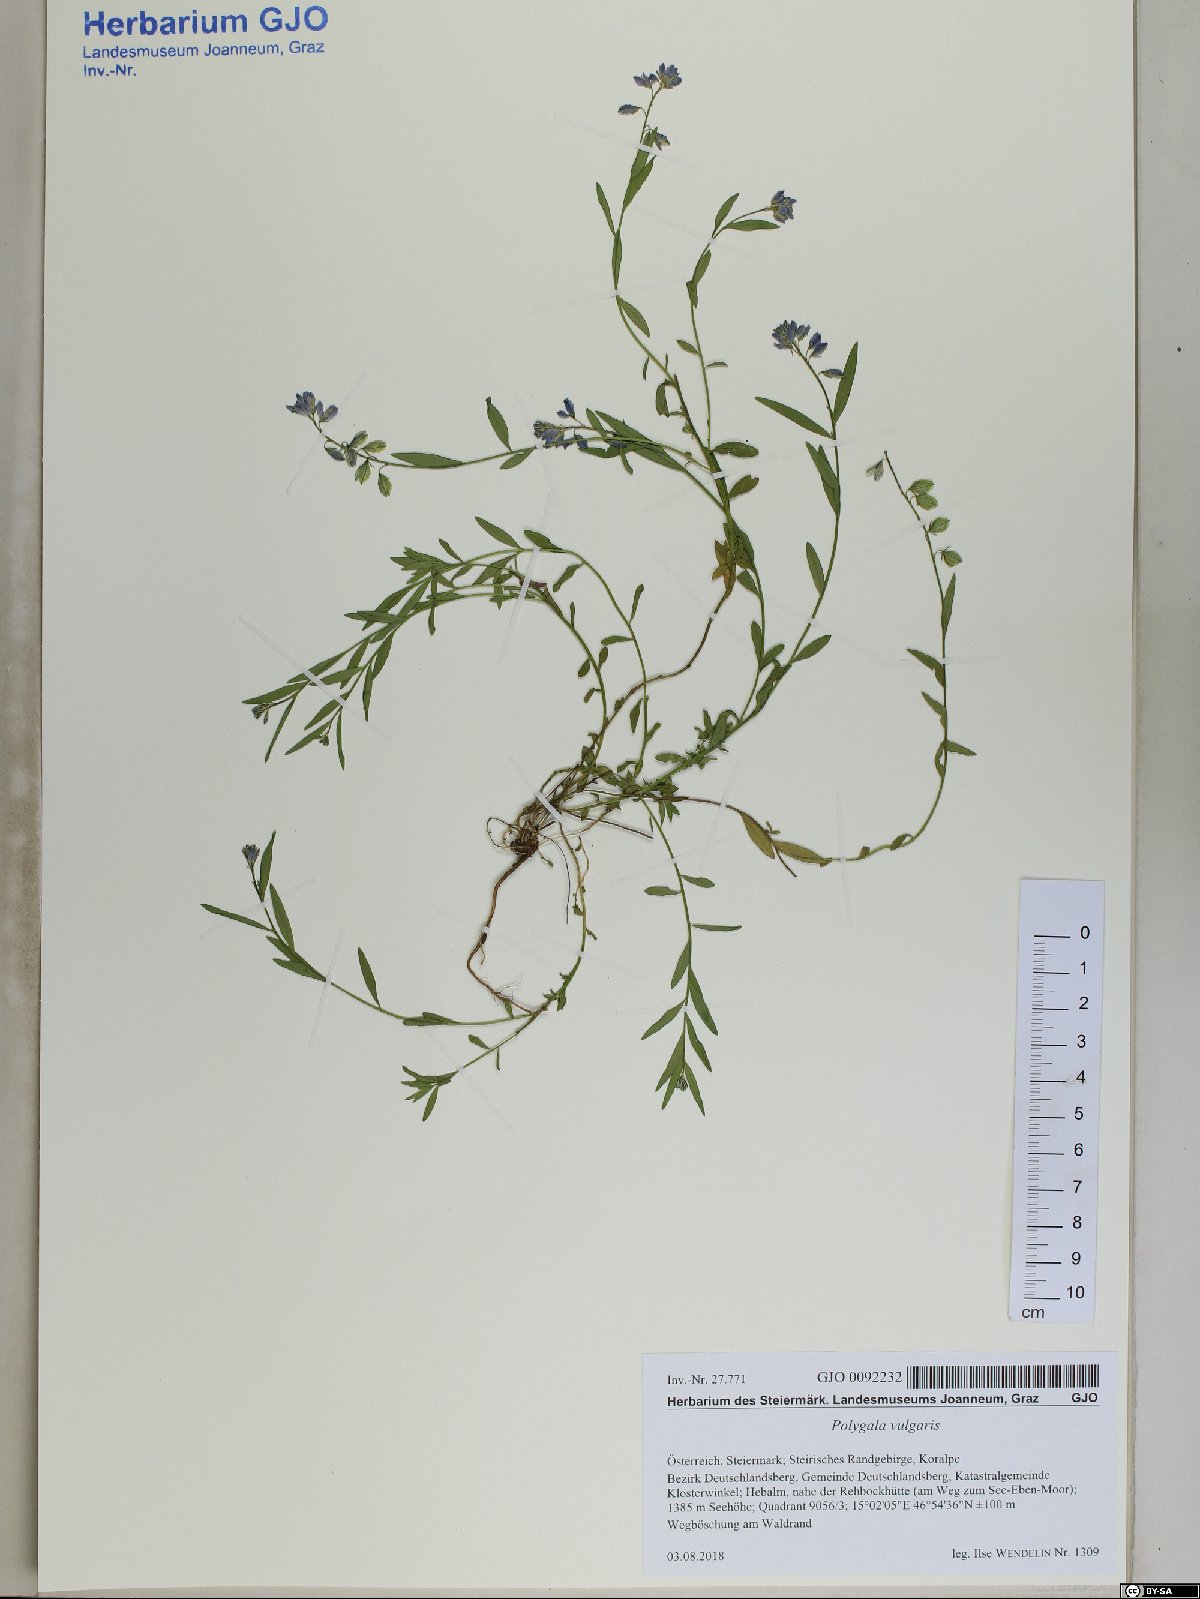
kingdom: Plantae
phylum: Tracheophyta
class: Magnoliopsida
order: Fabales
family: Polygalaceae
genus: Polygala
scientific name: Polygala vulgaris
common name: Common milkwort
